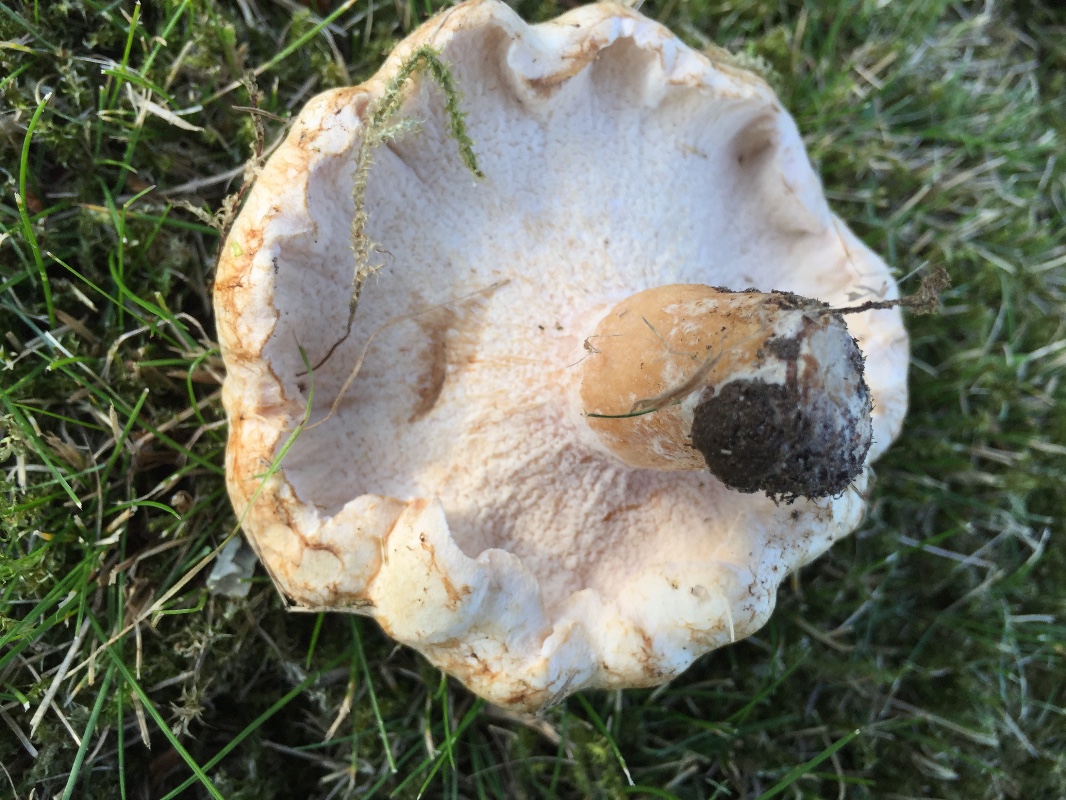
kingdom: Fungi
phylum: Ascomycota
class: Sordariomycetes
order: Hypocreales
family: Hypocreaceae
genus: Hypomyces
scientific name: Hypomyces spadiceus
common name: mælkeskæg-snylteskorpe
